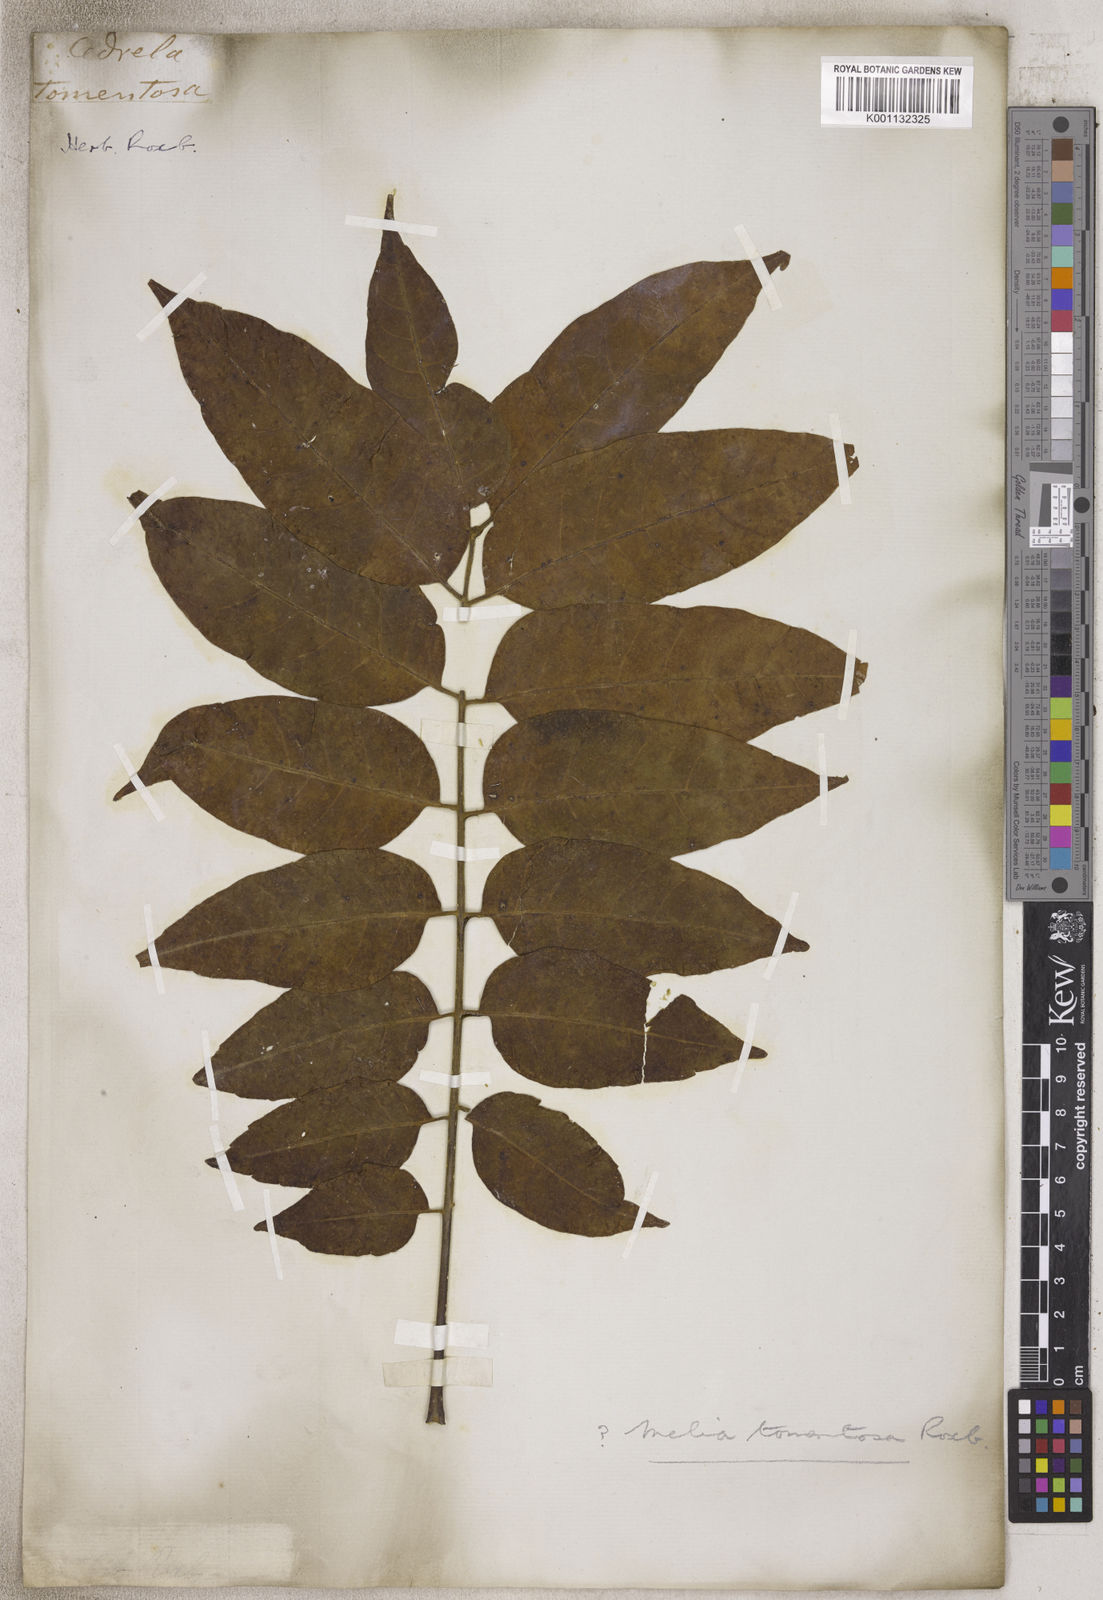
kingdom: Plantae
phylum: Tracheophyta
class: Magnoliopsida
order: Sapindales
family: Meliaceae
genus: Melia
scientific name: Melia
